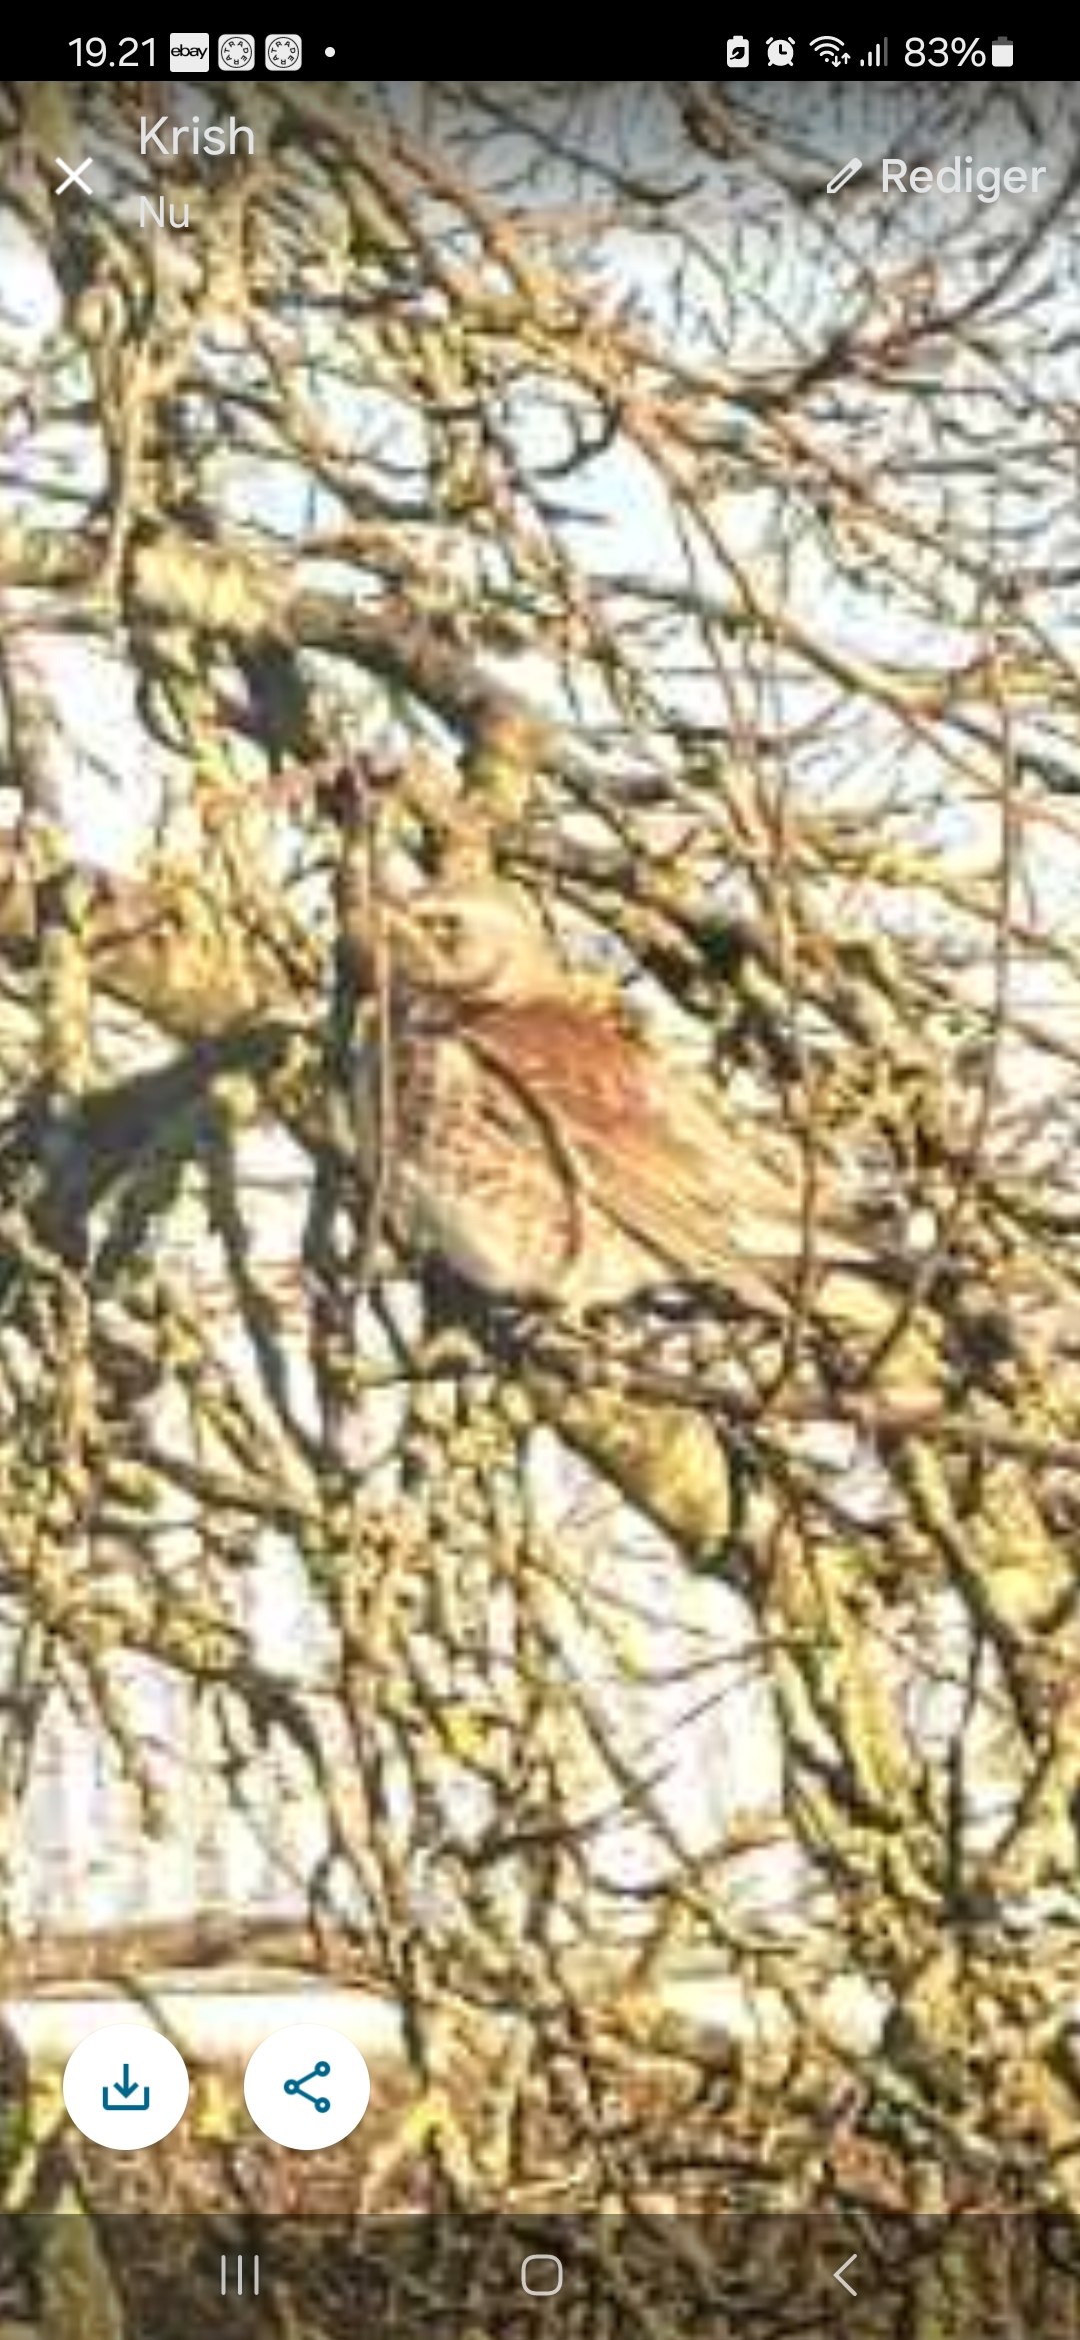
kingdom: Animalia
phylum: Chordata
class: Aves
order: Passeriformes
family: Turdidae
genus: Turdus
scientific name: Turdus pilaris
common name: Sjagger
